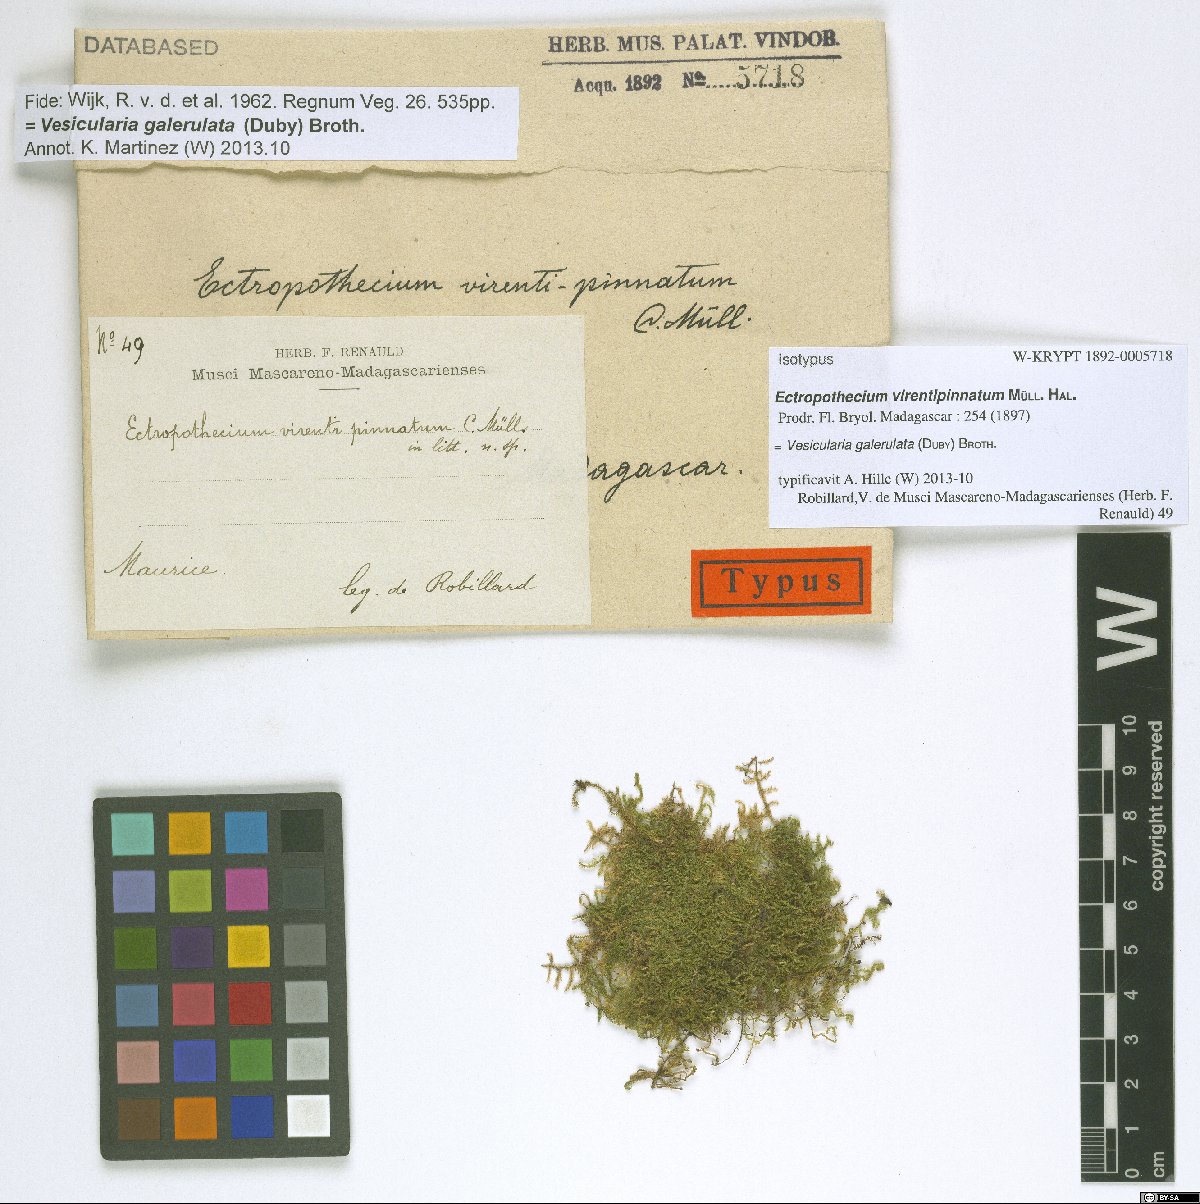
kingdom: Plantae
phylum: Bryophyta
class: Bryopsida
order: Hypnales
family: Hypnaceae
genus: Vesicularia
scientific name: Vesicularia galerulata
